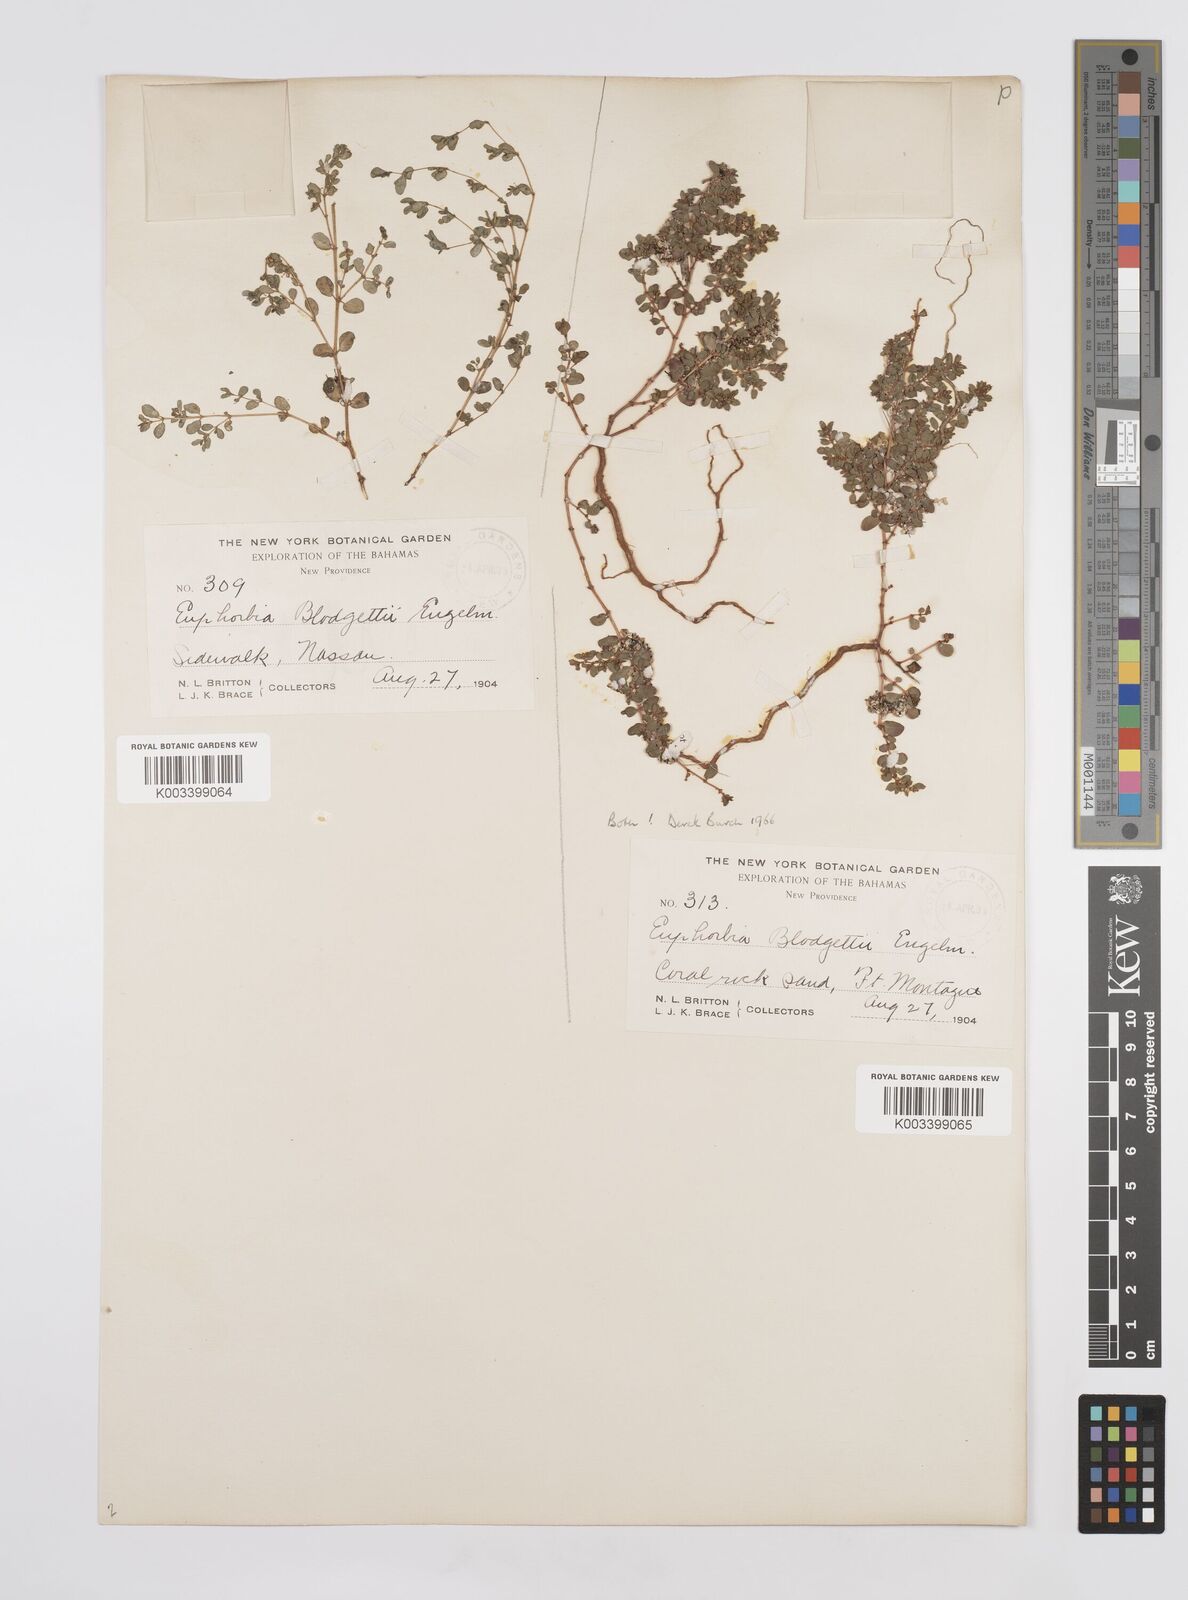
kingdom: Plantae
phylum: Tracheophyta
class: Magnoliopsida
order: Malpighiales
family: Euphorbiaceae
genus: Euphorbia
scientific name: Euphorbia blodgettii
